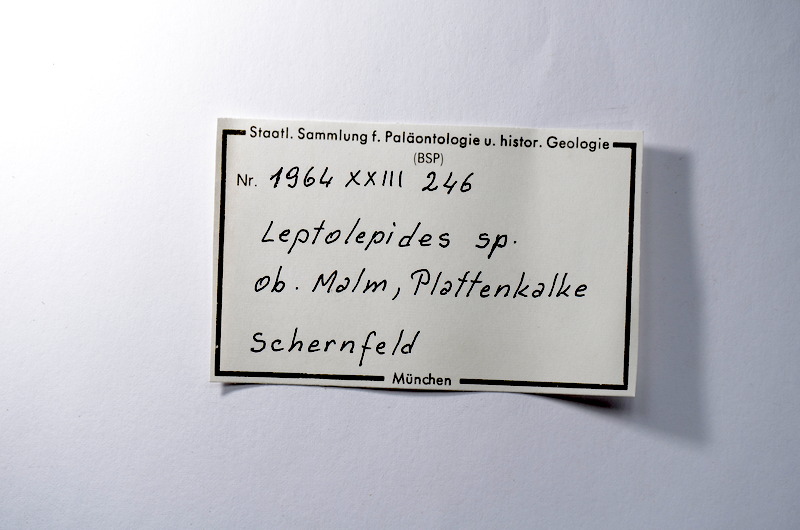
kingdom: Animalia
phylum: Chordata
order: Salmoniformes
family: Orthogonikleithridae
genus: Leptolepides
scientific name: Leptolepides
